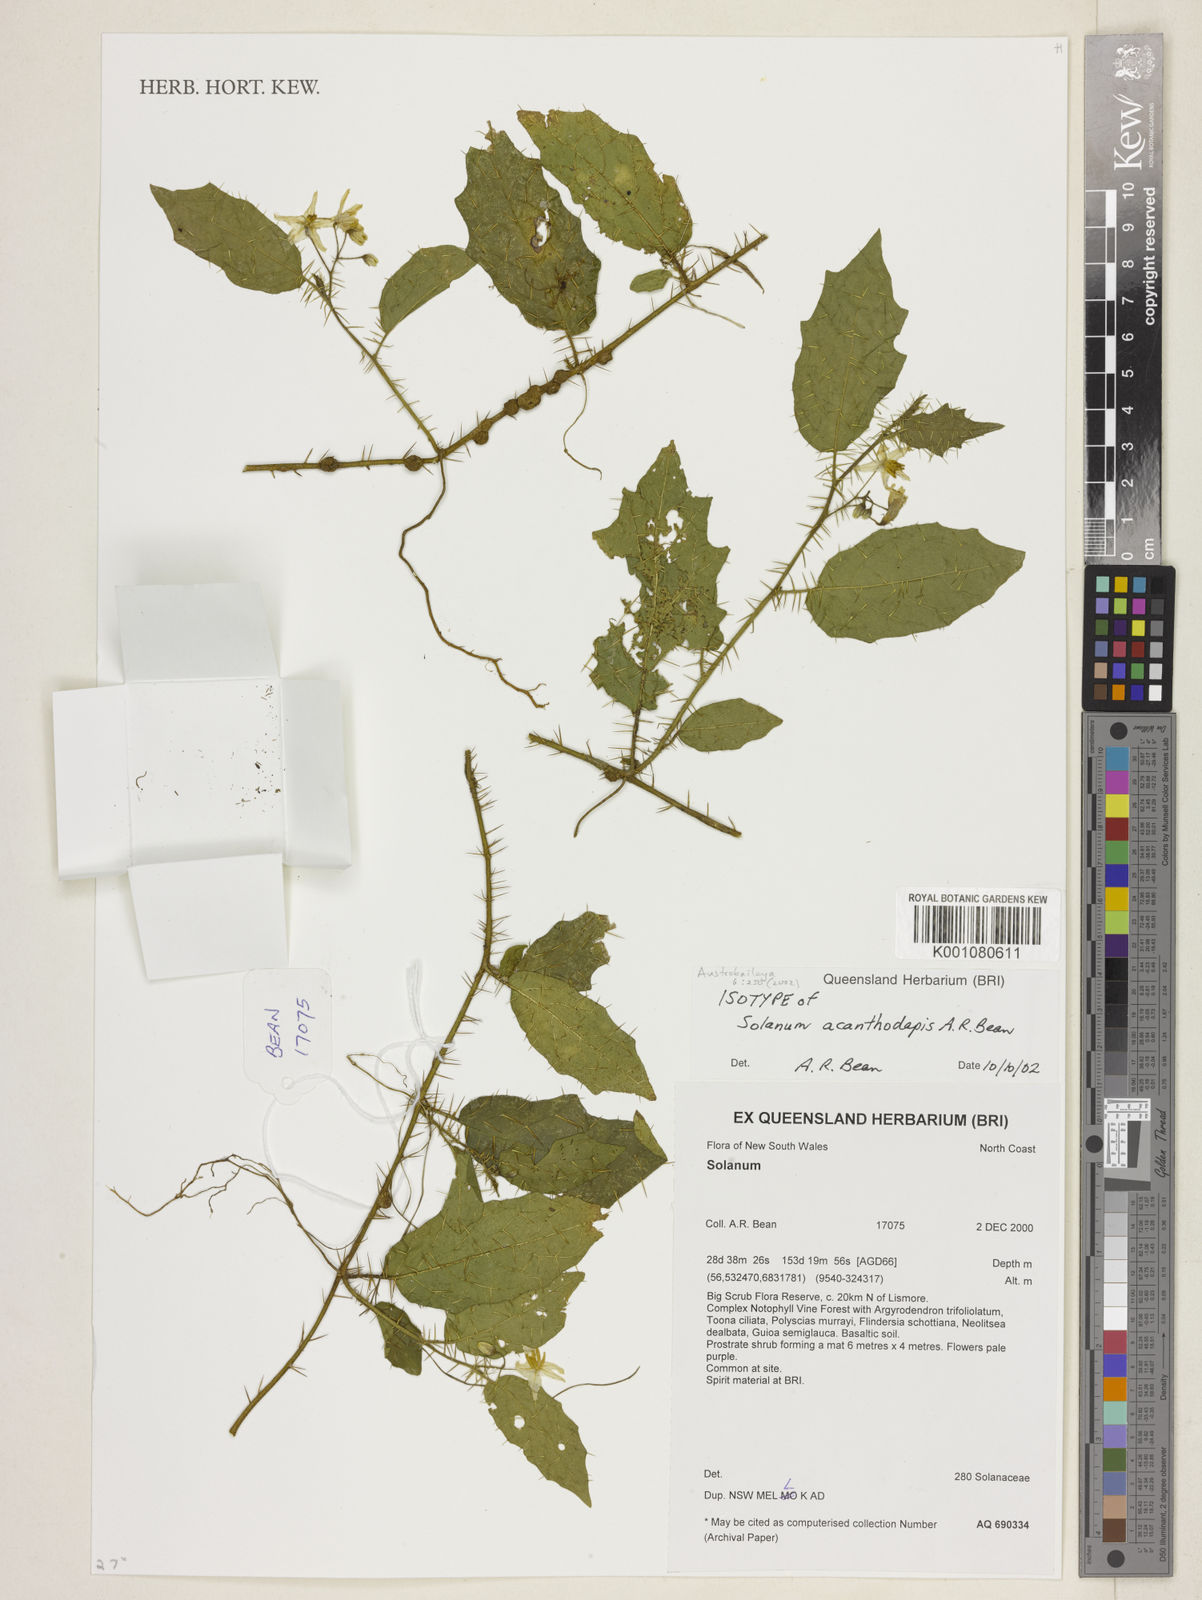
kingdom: Plantae
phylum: Tracheophyta
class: Magnoliopsida
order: Solanales
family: Solanaceae
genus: Solanum
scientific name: Solanum acanthodapis
